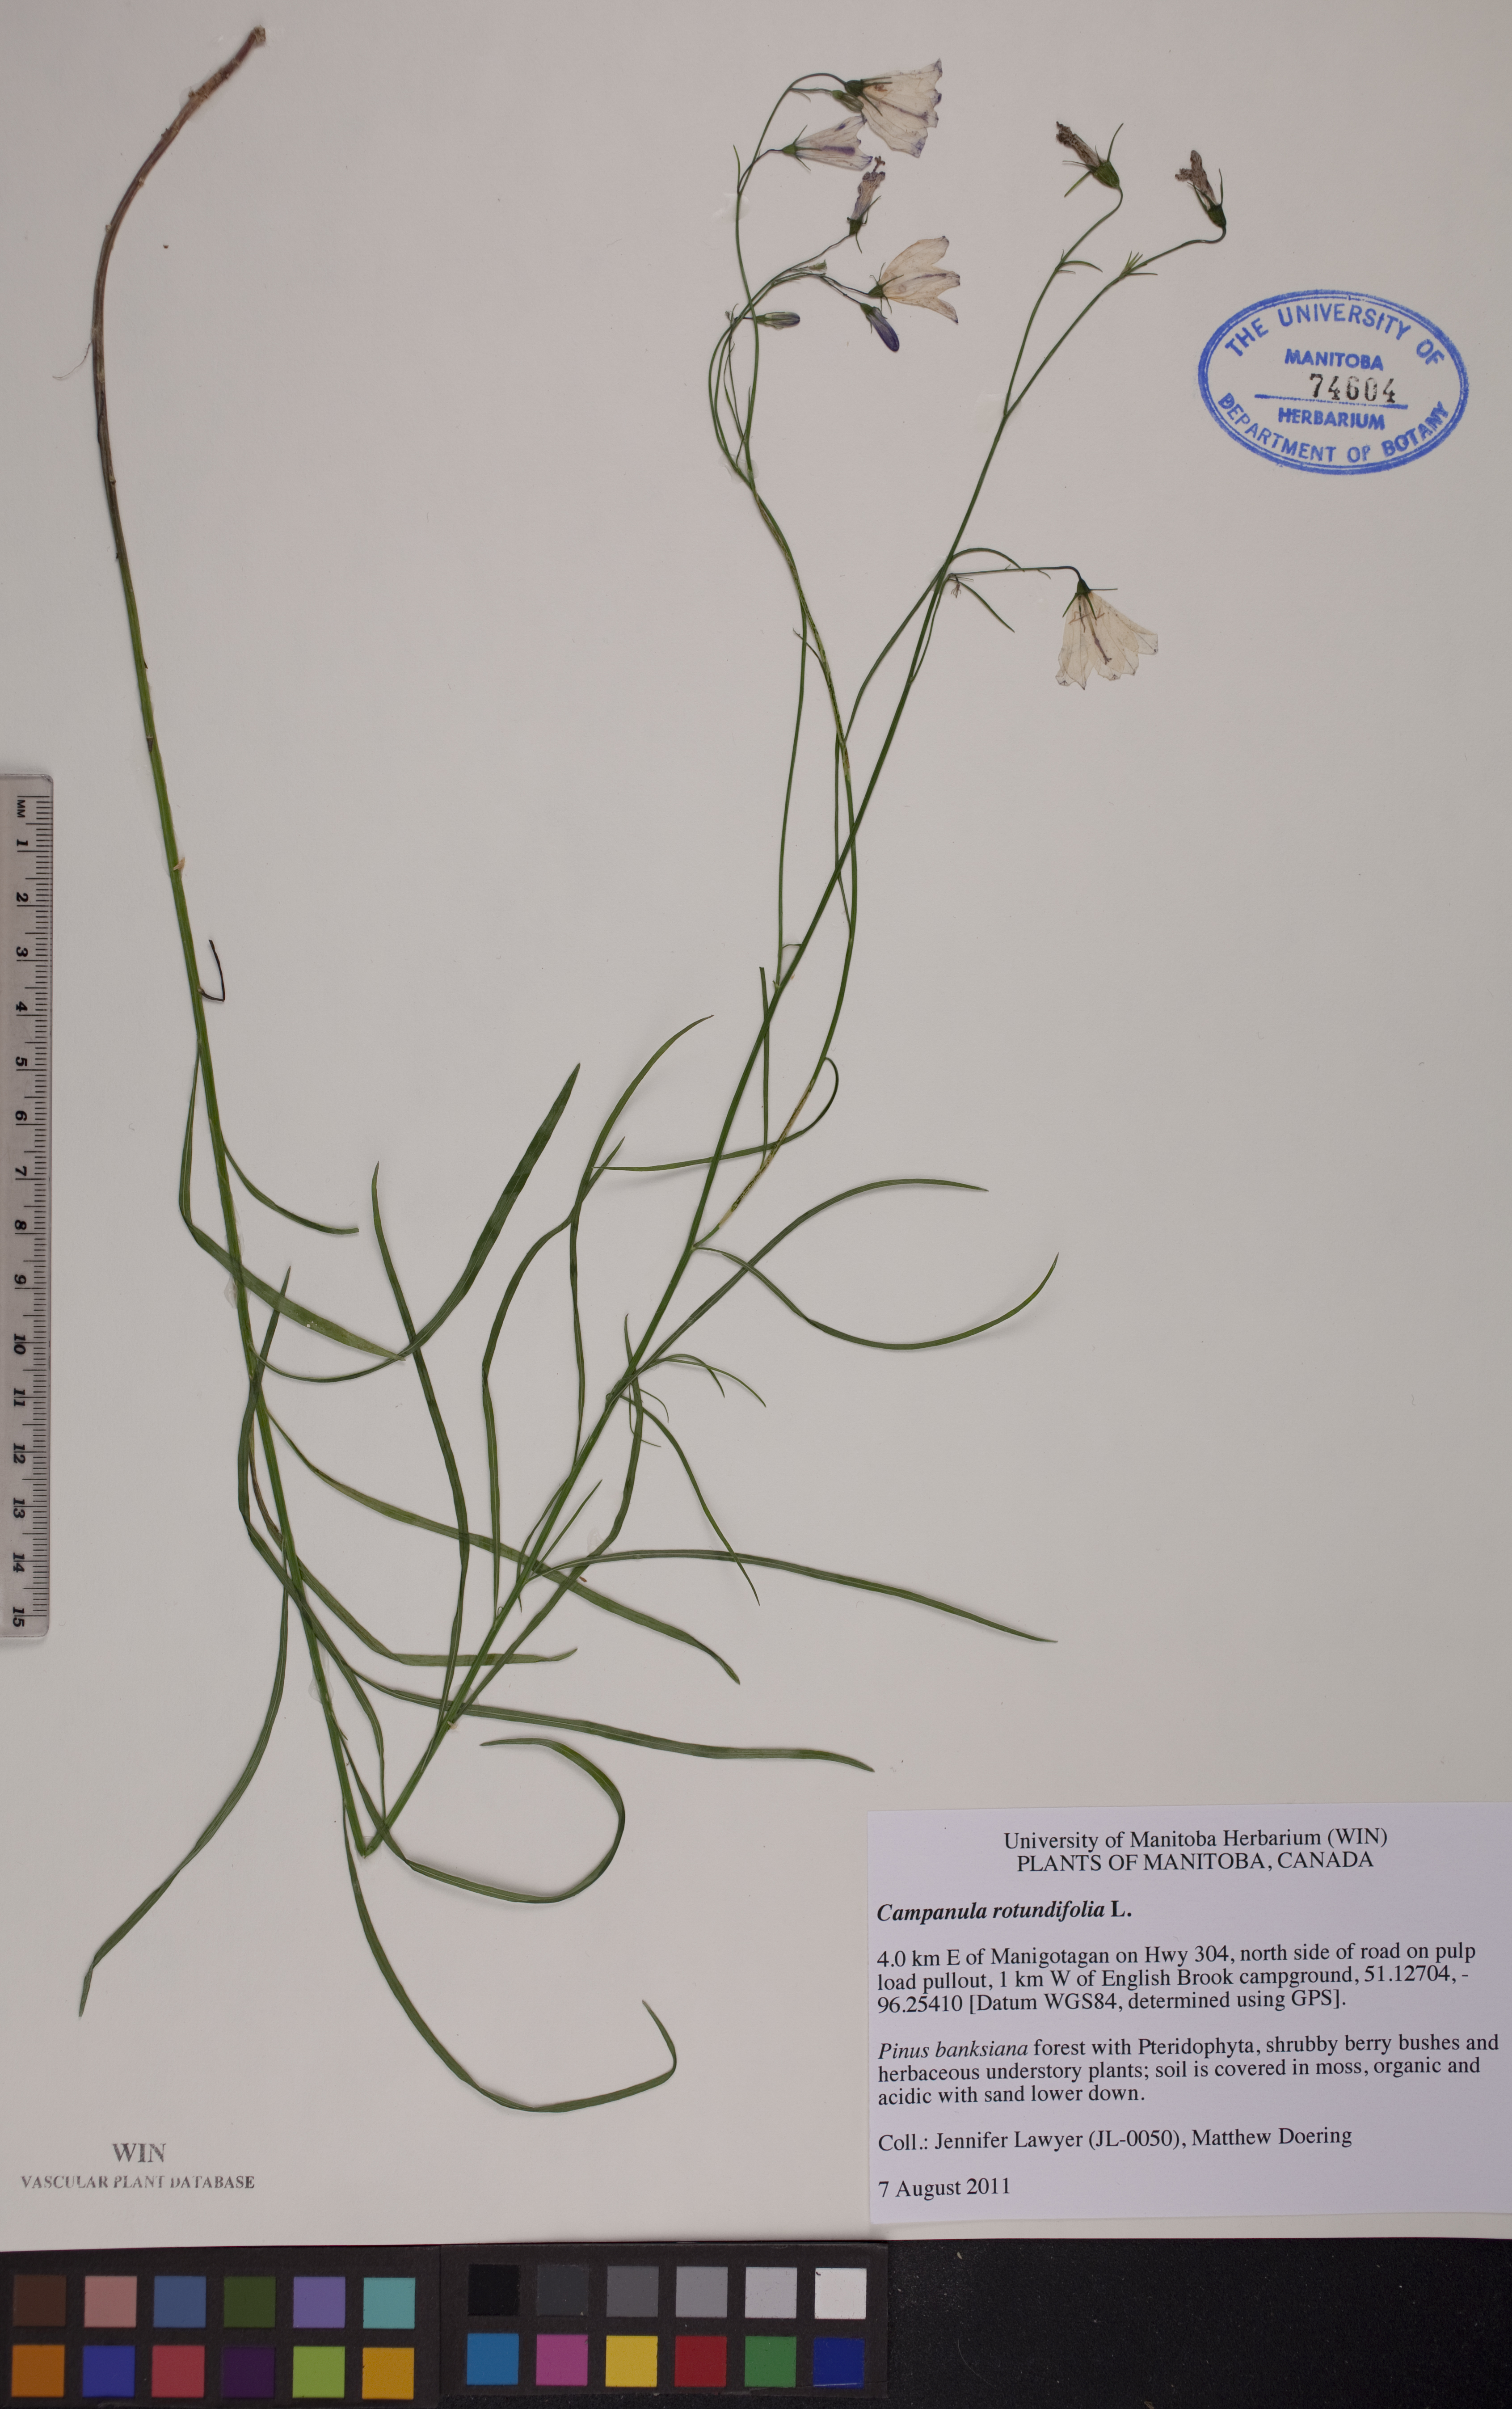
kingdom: Plantae
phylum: Tracheophyta
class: Magnoliopsida
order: Asterales
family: Campanulaceae
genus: Campanula
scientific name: Campanula rotundifolia
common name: Harebell
